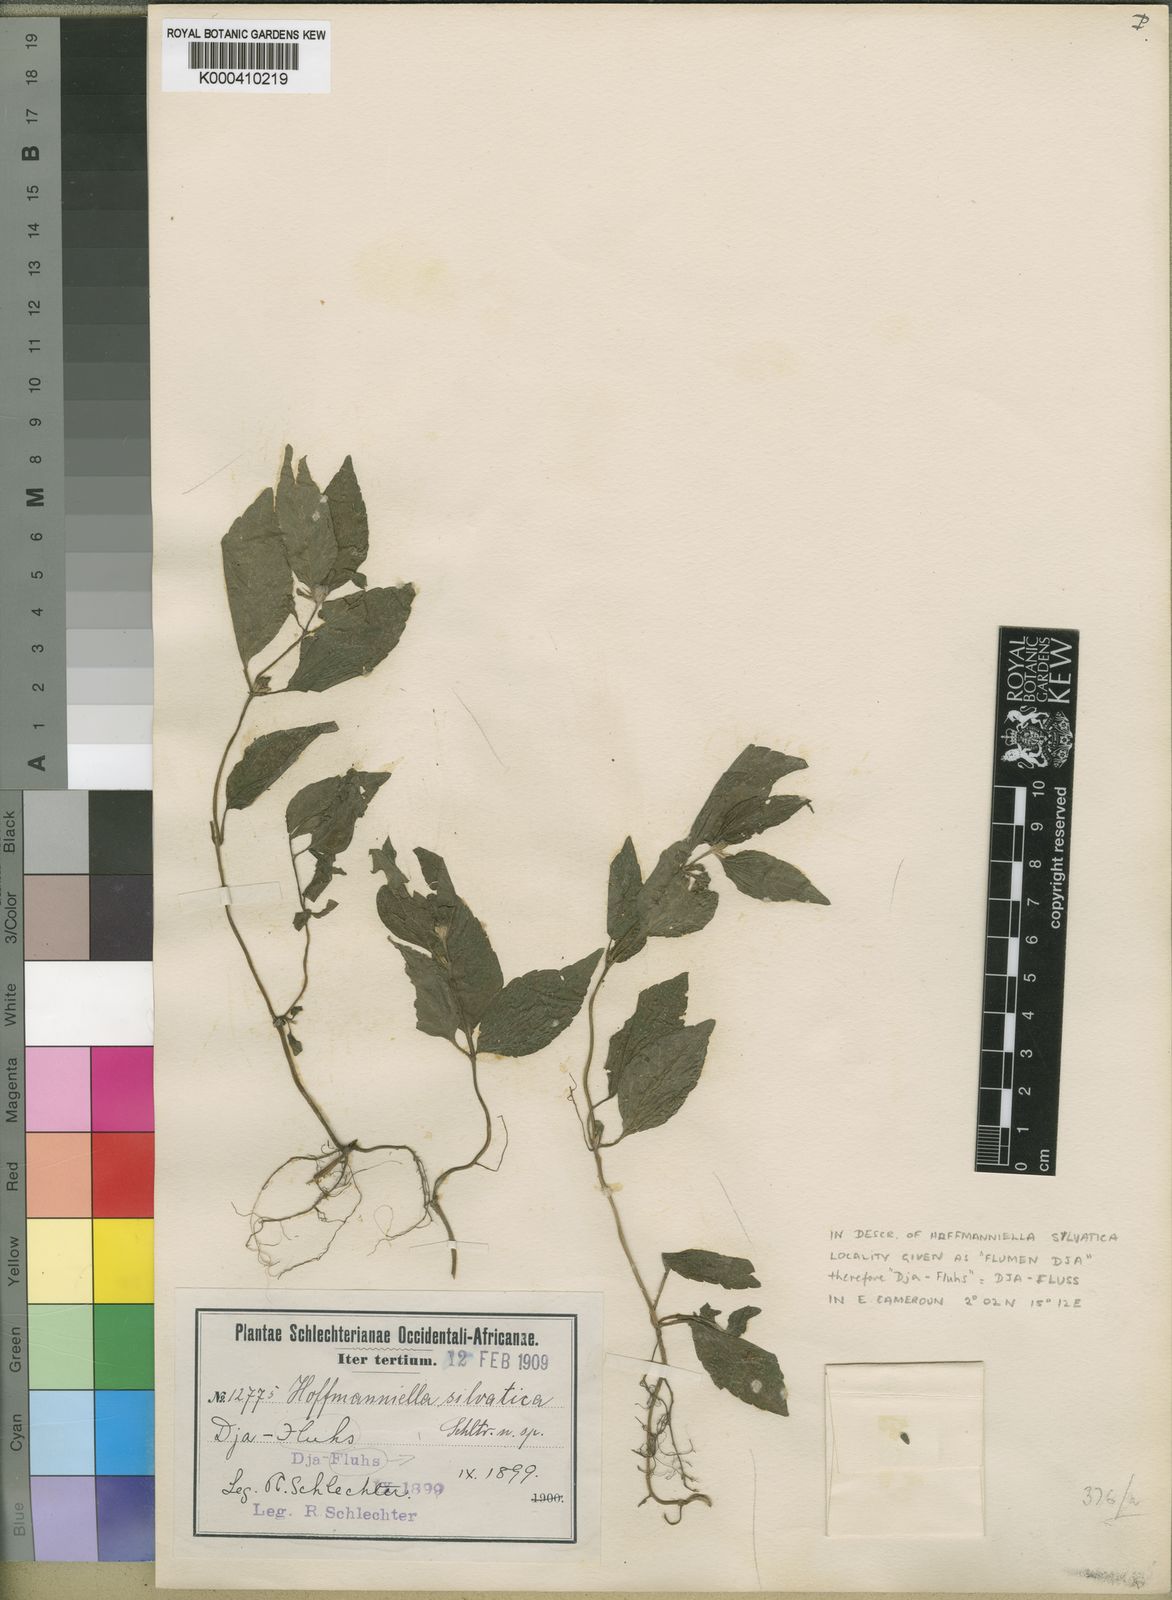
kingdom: Plantae
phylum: Tracheophyta
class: Magnoliopsida
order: Asterales
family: Asteraceae
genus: Wedelia
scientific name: Wedelia
